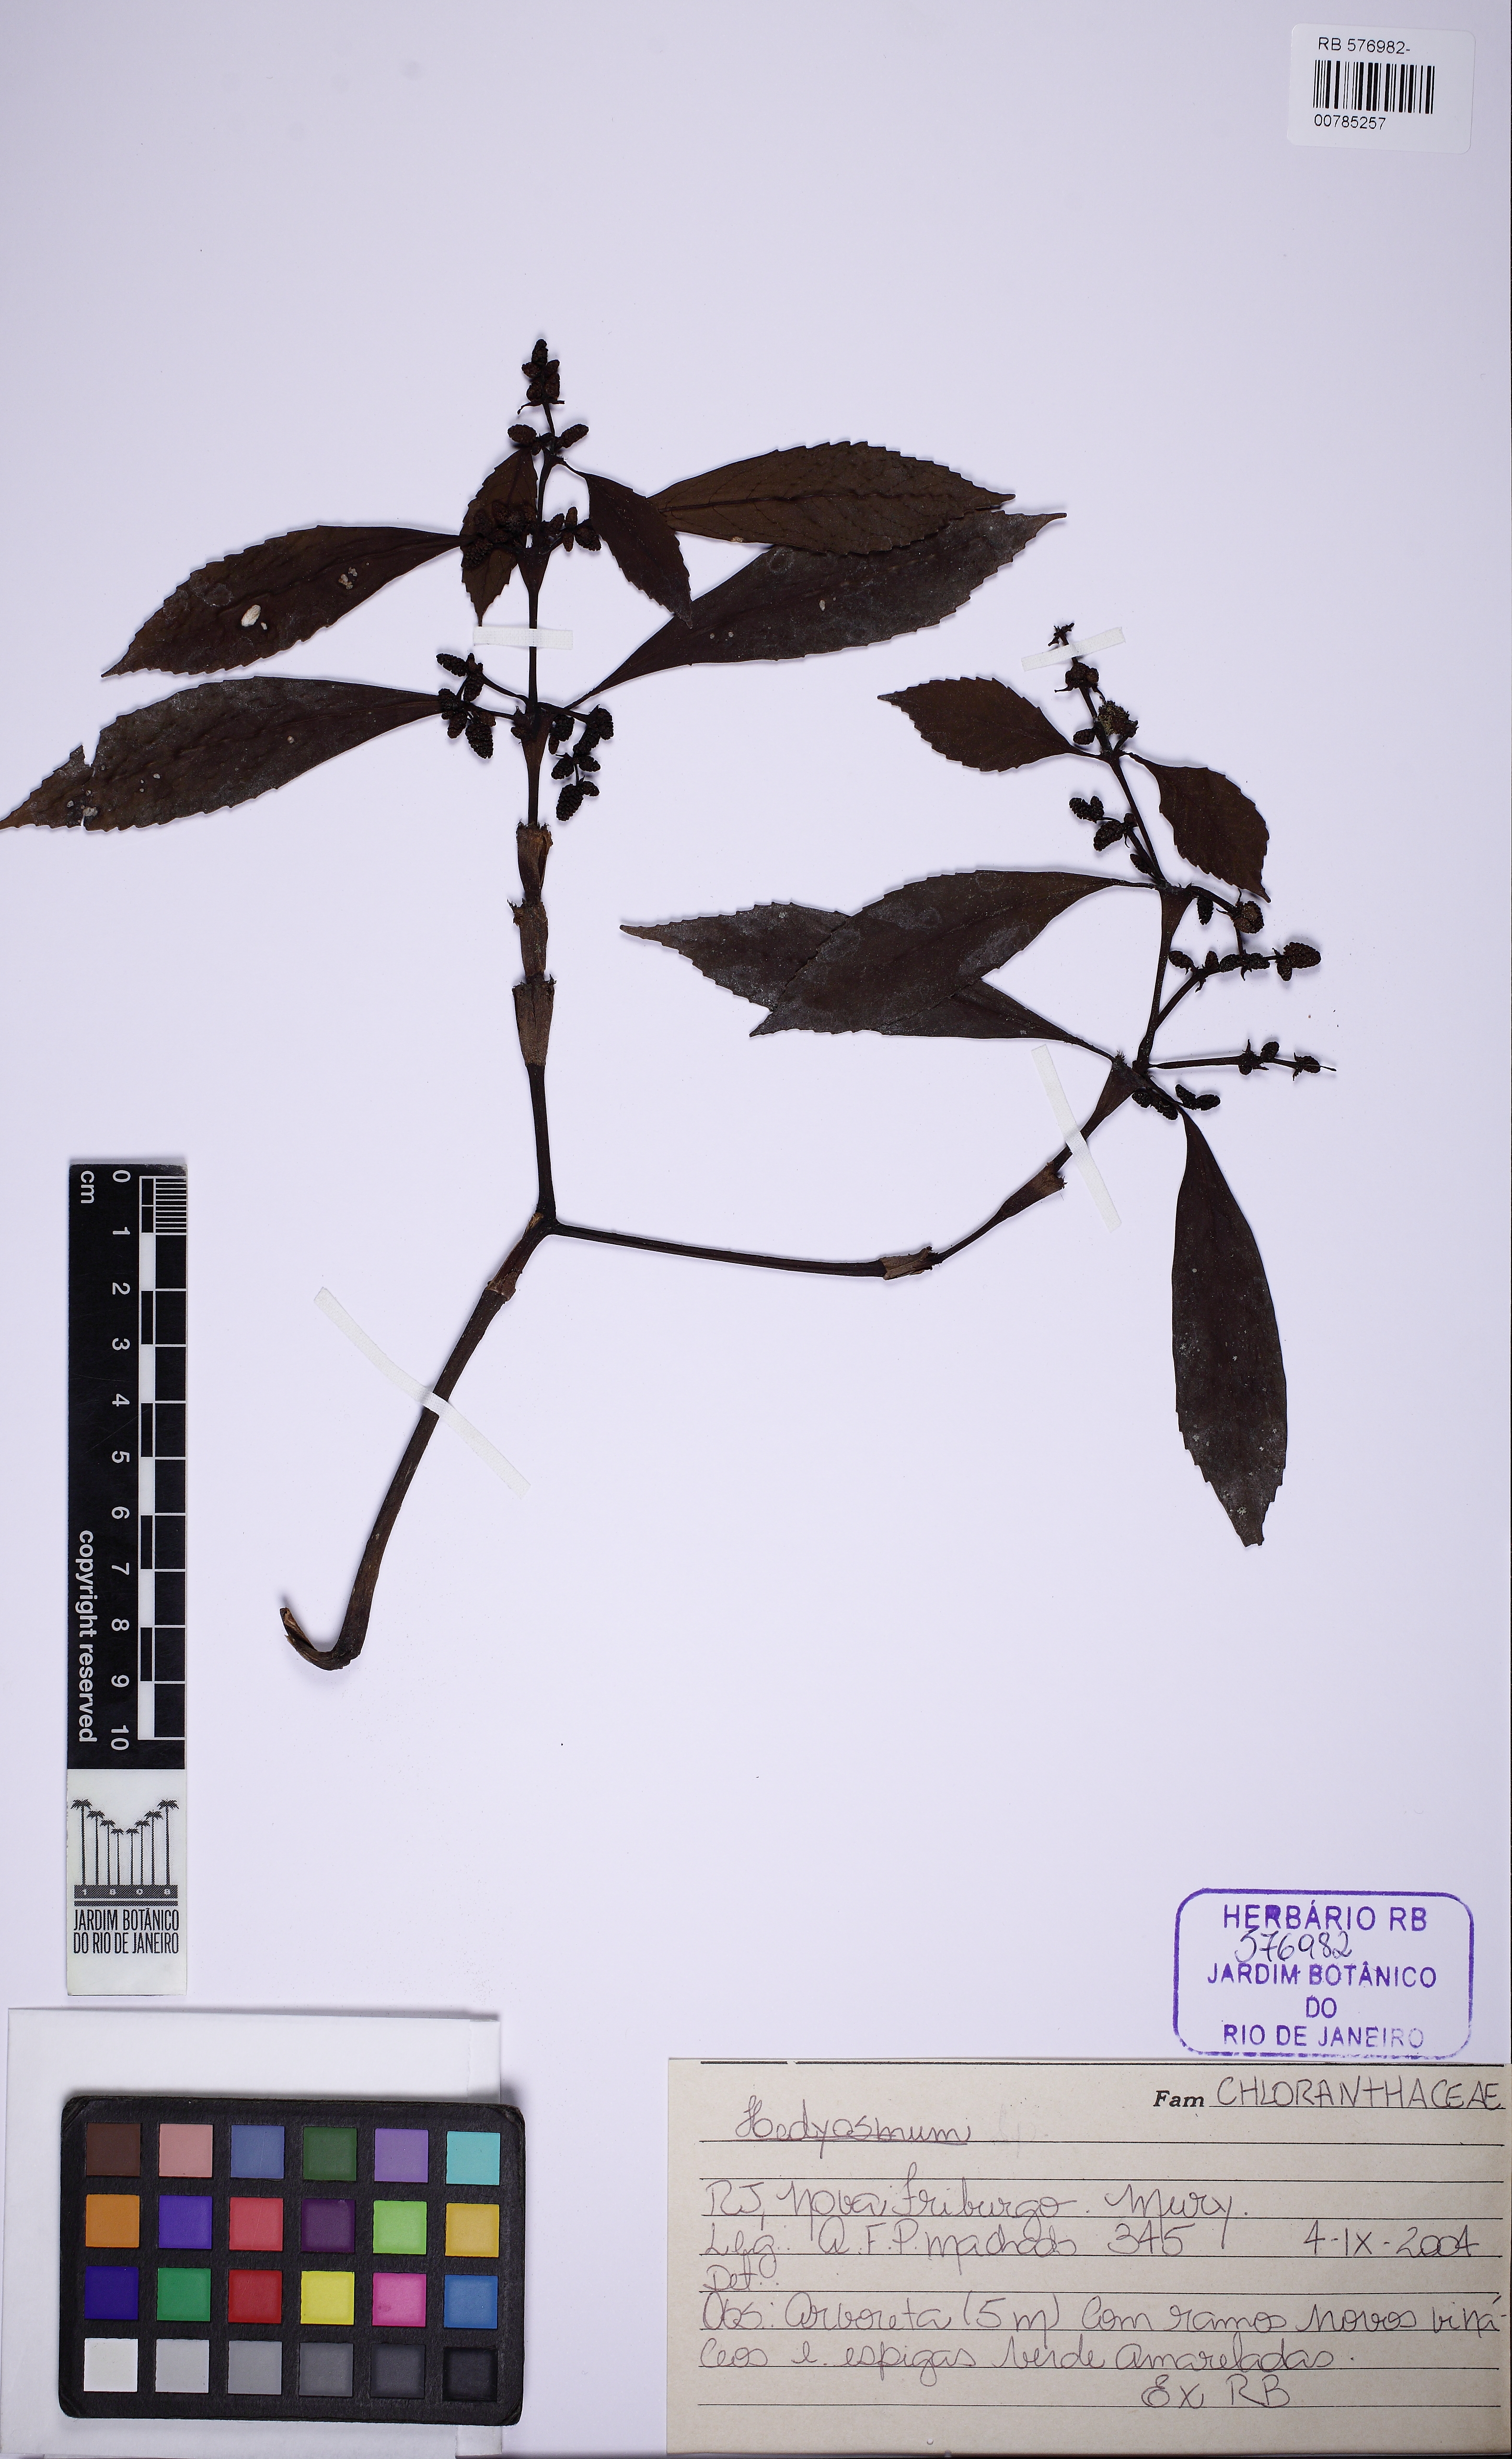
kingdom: Plantae
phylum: Tracheophyta
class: Magnoliopsida
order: Chloranthales
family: Chloranthaceae
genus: Hedyosmum
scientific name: Hedyosmum
